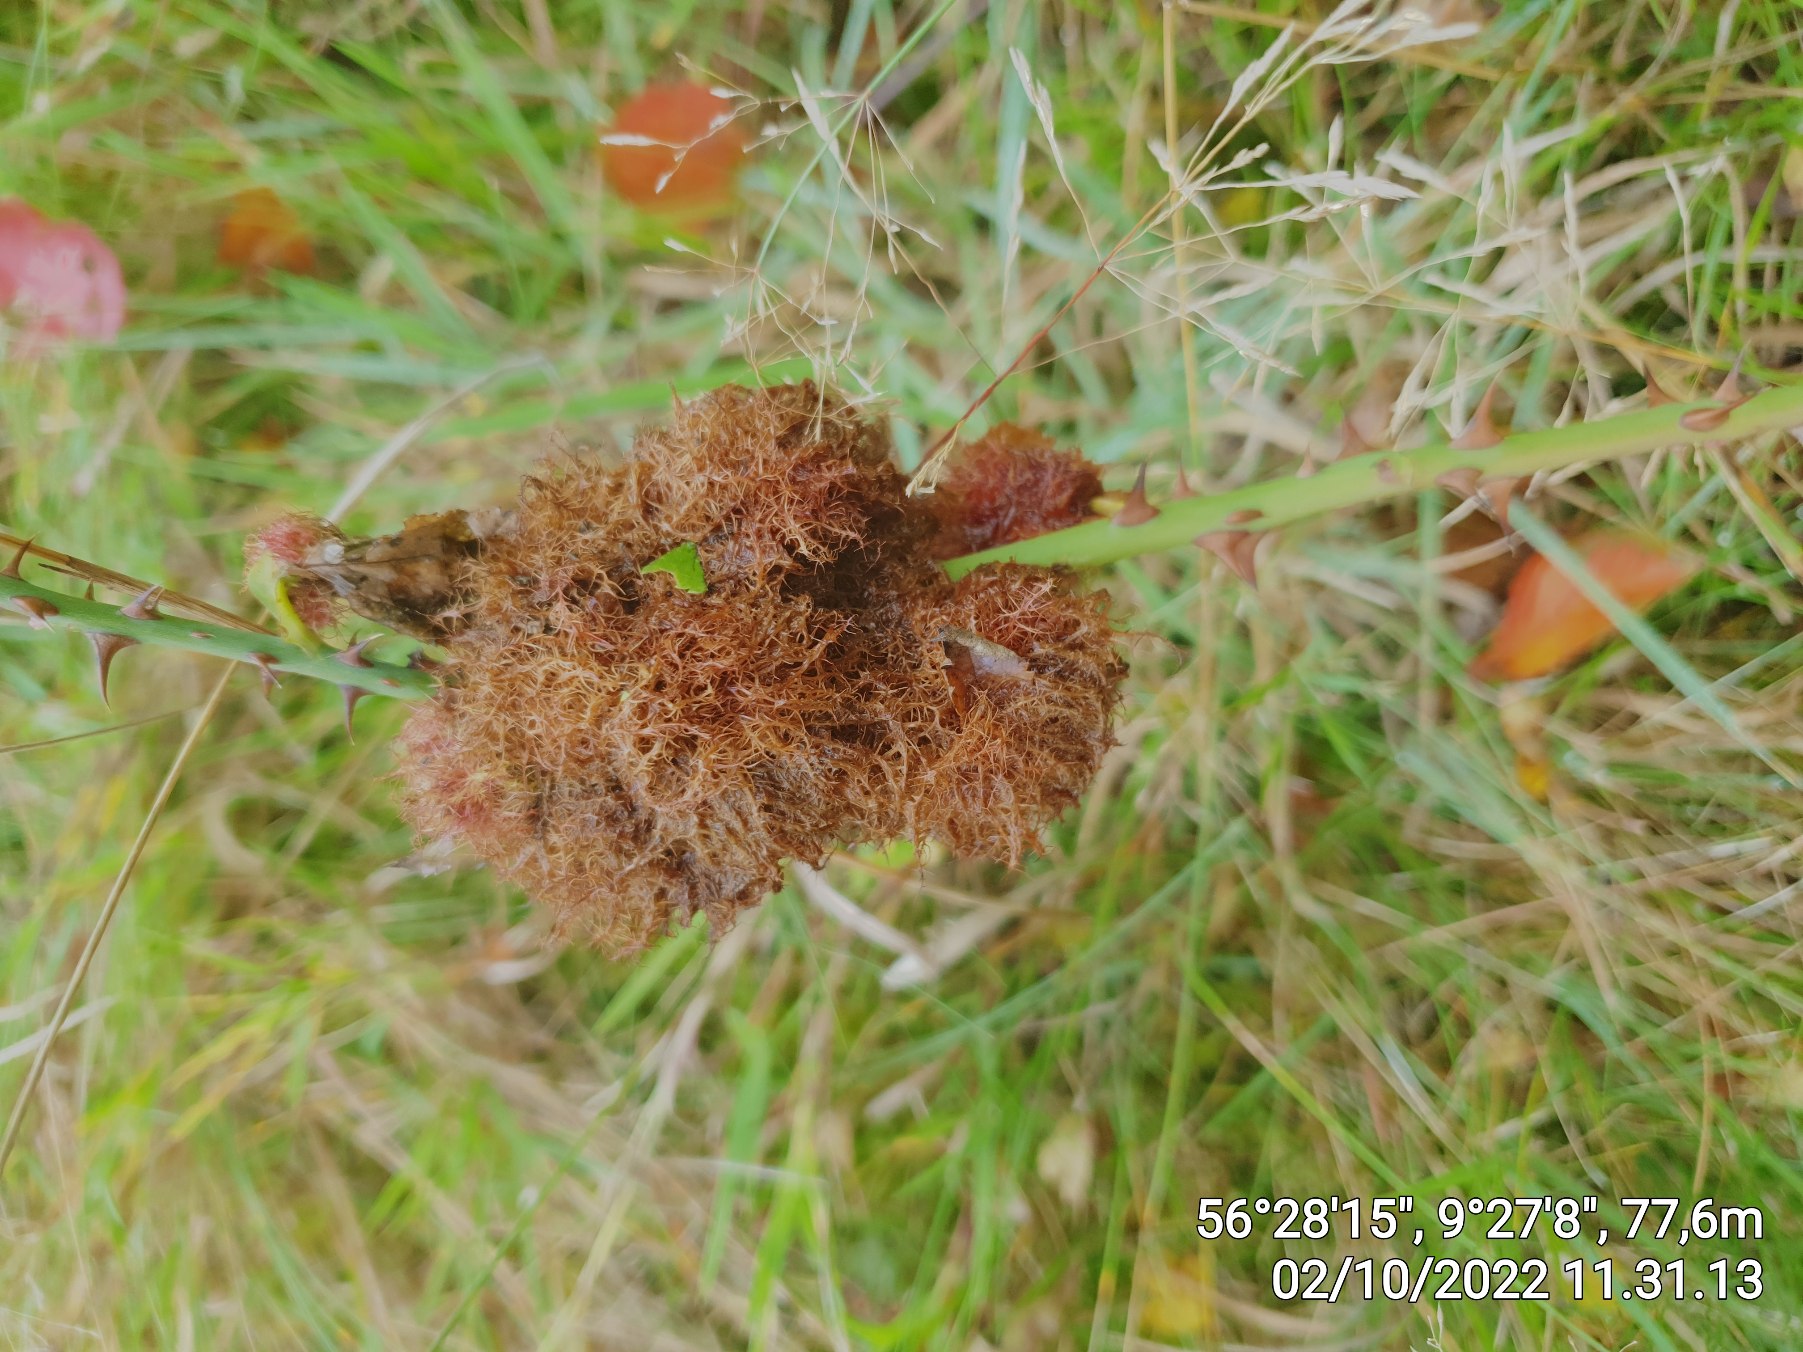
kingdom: Animalia
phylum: Arthropoda
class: Insecta
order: Hymenoptera
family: Cynipidae
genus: Diplolepis
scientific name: Diplolepis rosae
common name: Bedeguargalhveps
